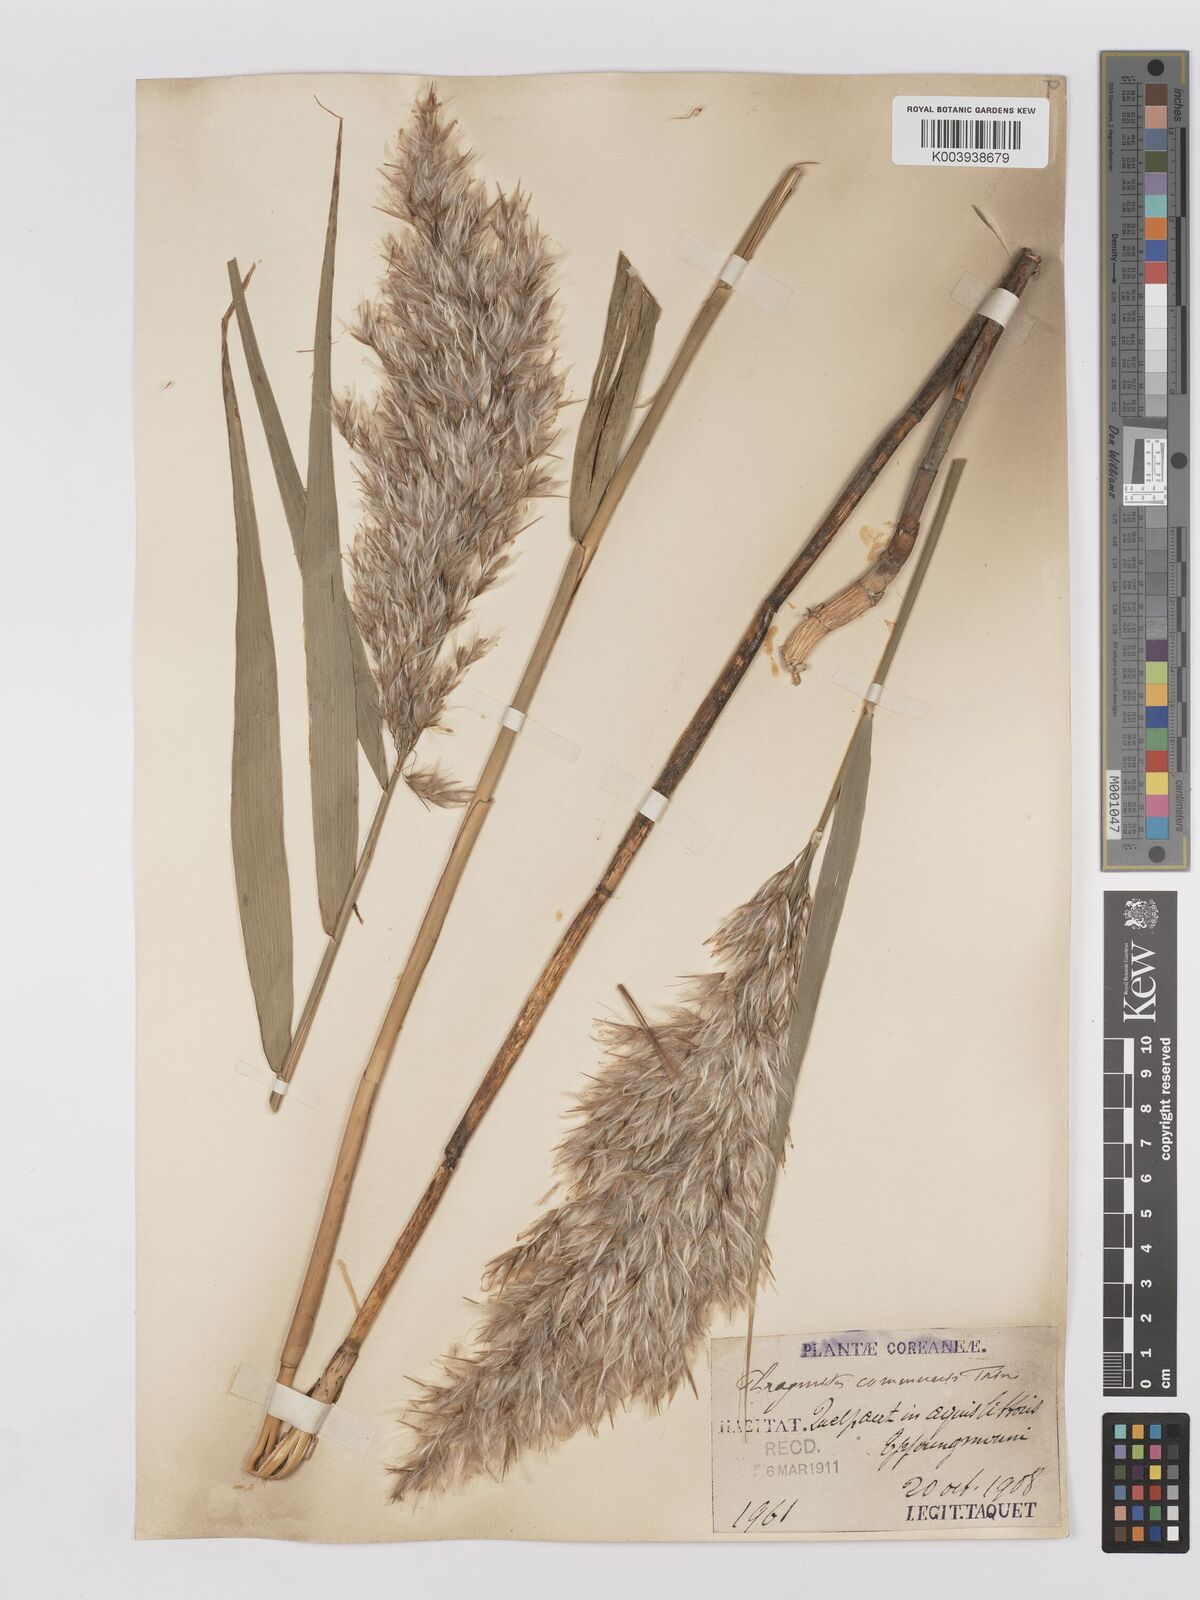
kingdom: Plantae
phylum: Tracheophyta
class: Liliopsida
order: Poales
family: Poaceae
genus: Phragmites
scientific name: Phragmites australis
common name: Common reed
